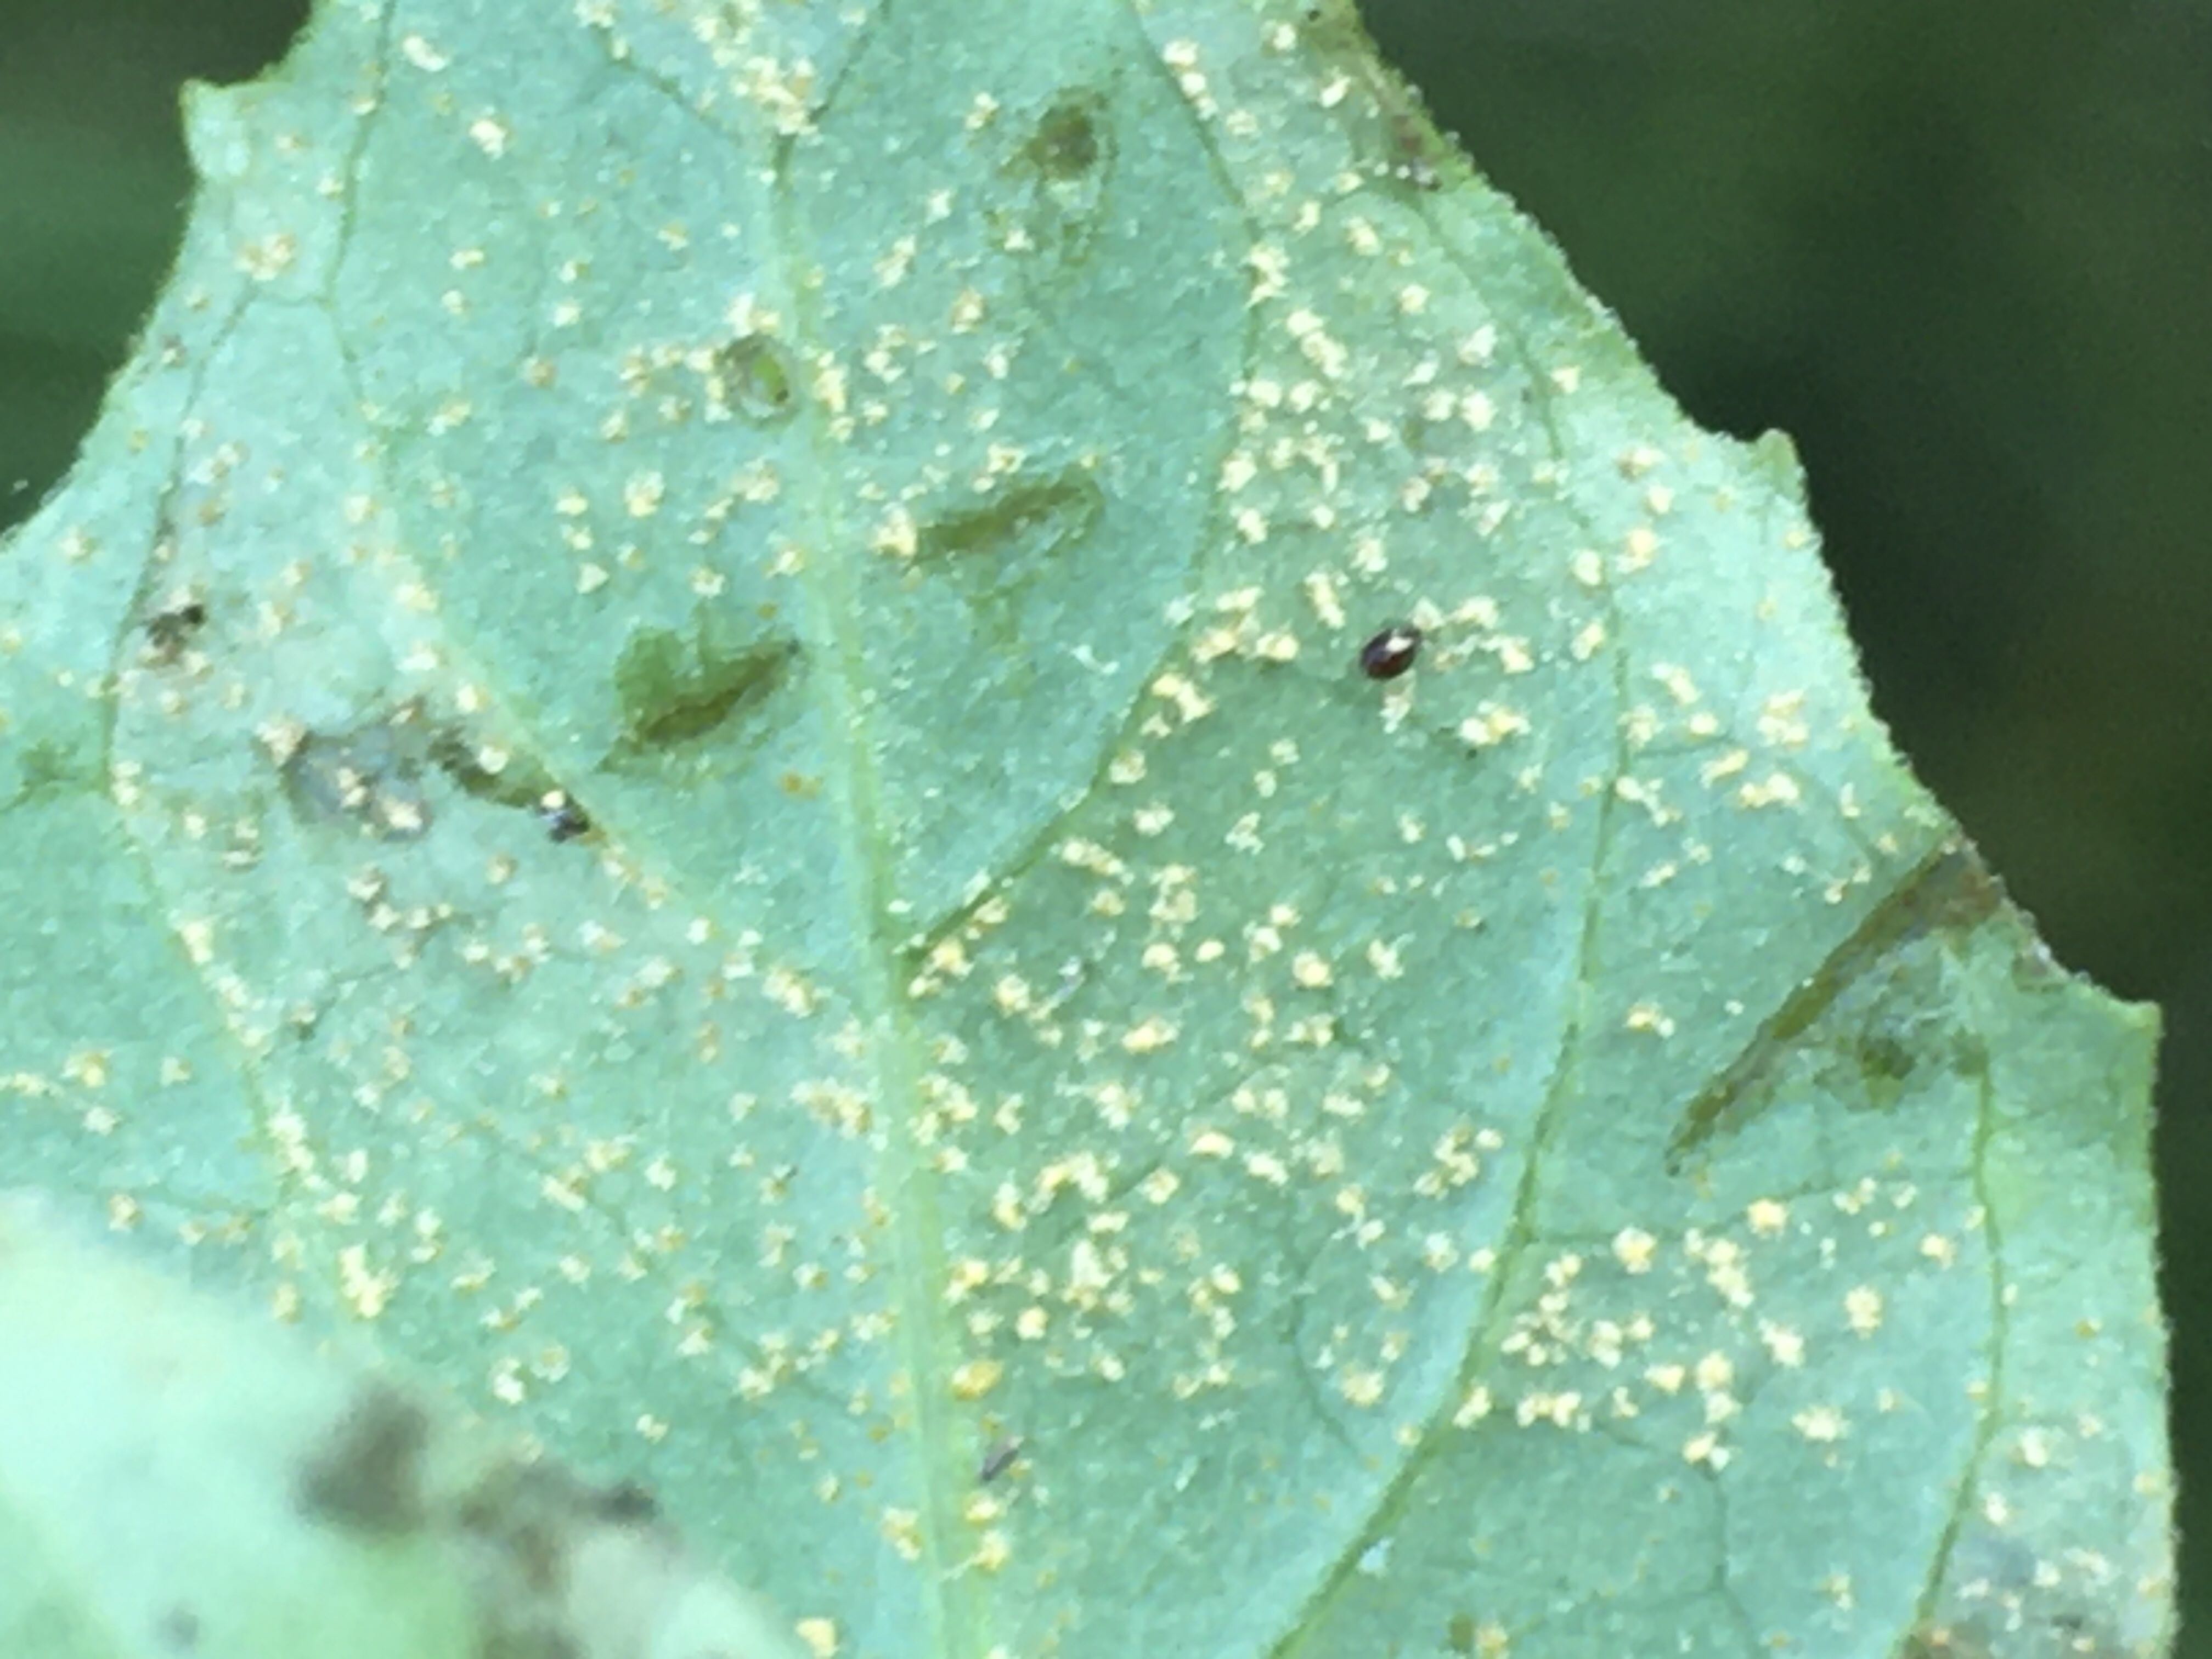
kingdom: Fungi
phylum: Basidiomycota
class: Pucciniomycetes
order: Pucciniales
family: Pucciniastraceae
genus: Pucciniastrum
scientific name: Pucciniastrum circaeae
